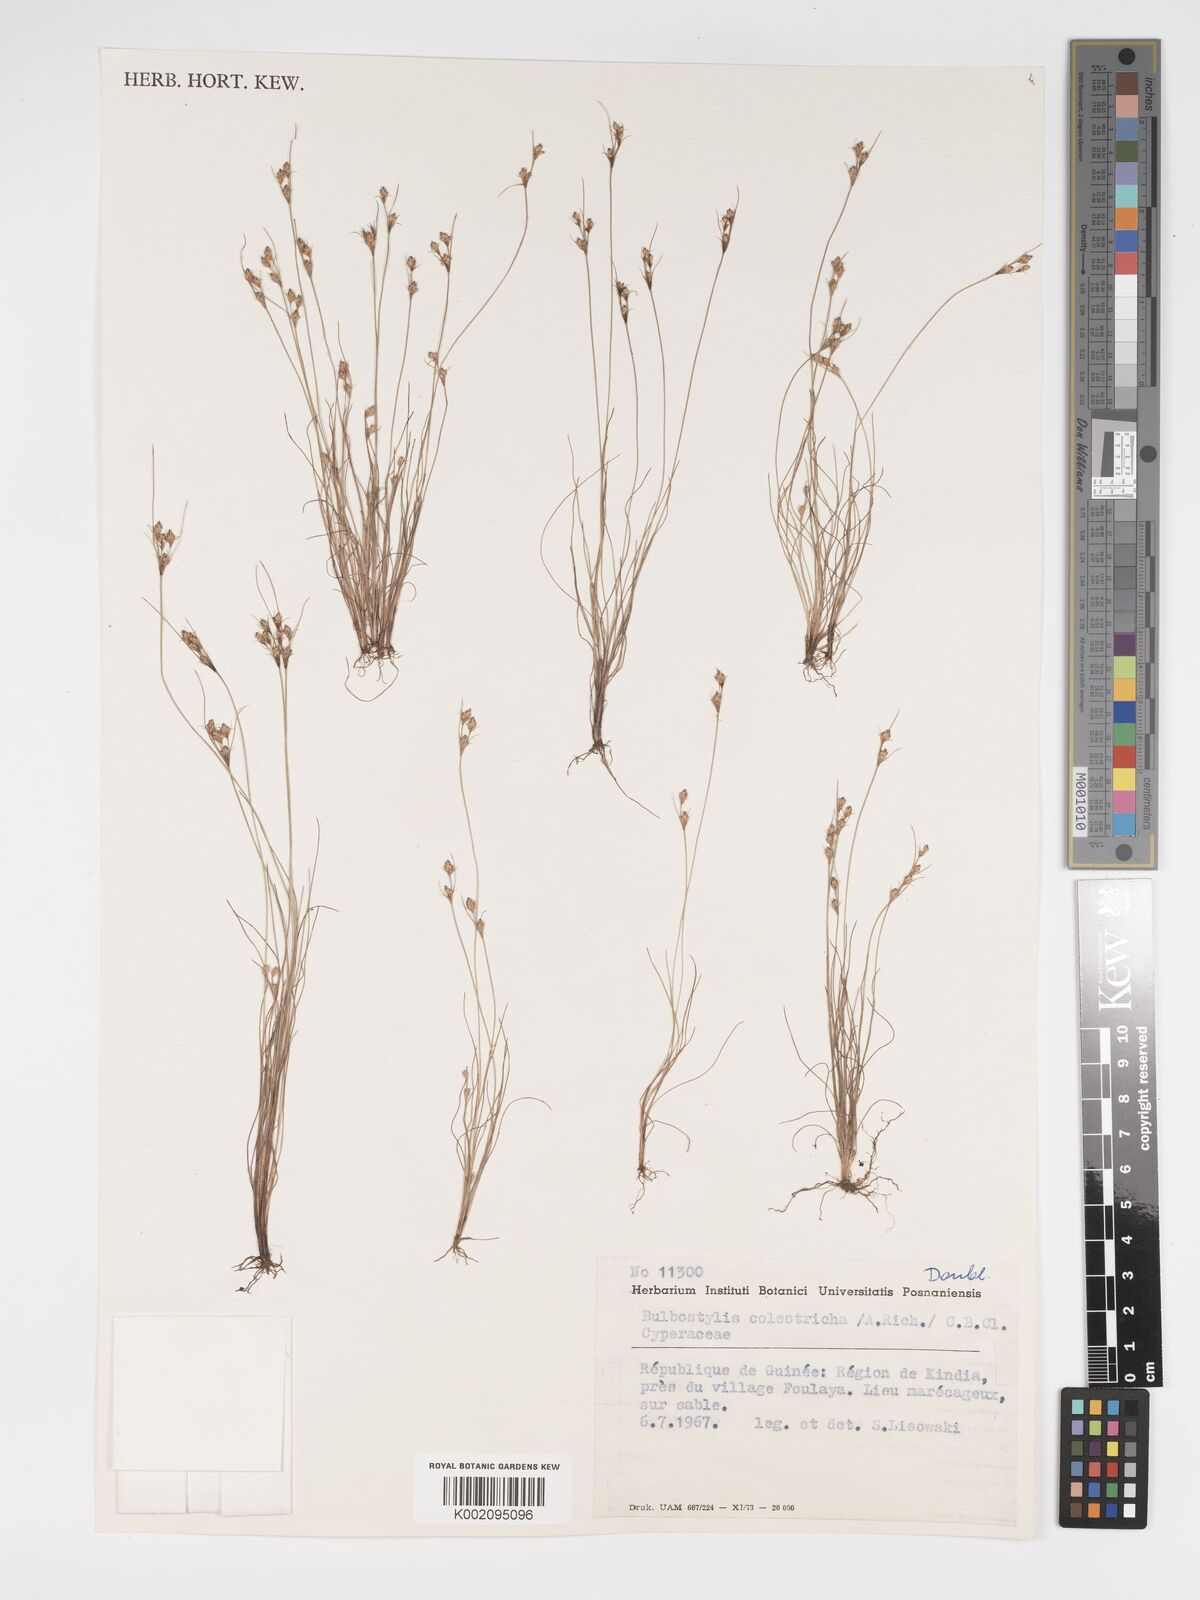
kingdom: Plantae
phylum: Tracheophyta
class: Liliopsida
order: Poales
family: Cyperaceae
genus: Bulbostylis
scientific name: Bulbostylis coleotricha
